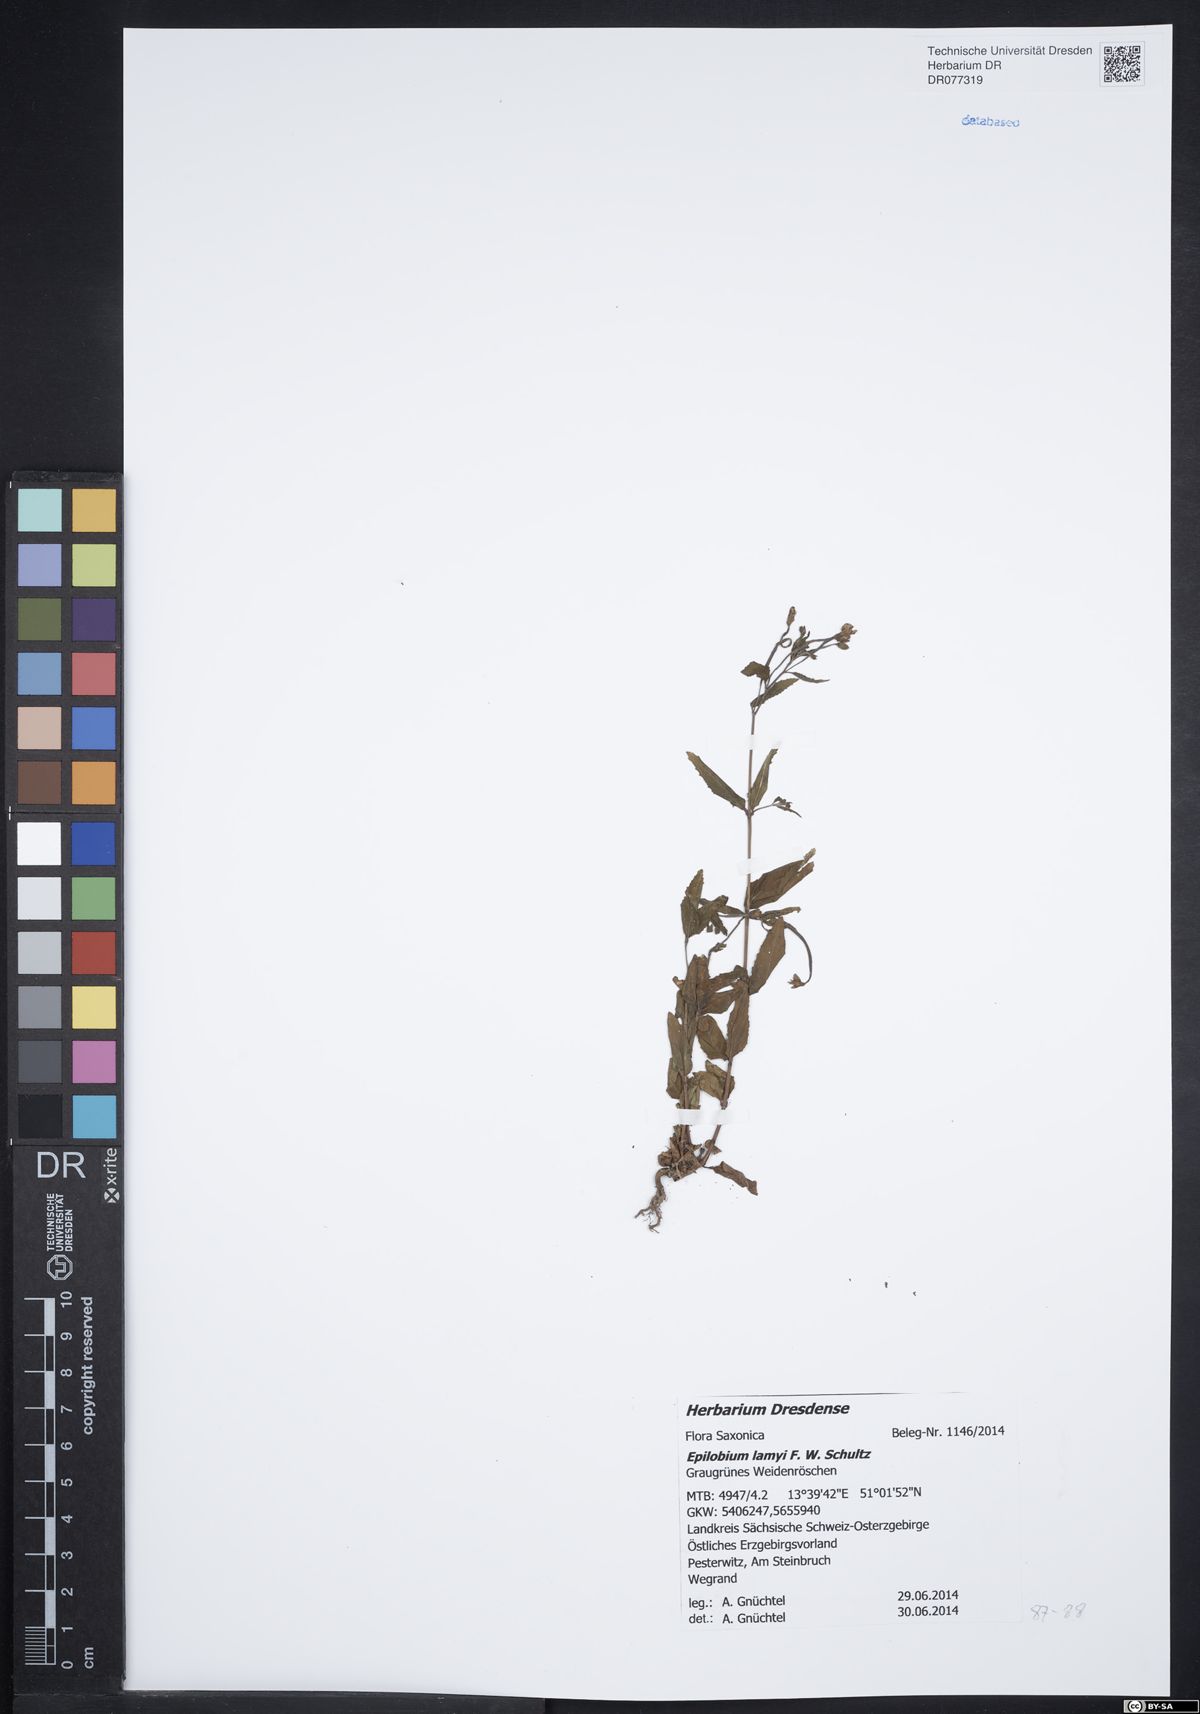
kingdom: Plantae
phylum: Tracheophyta
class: Magnoliopsida
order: Myrtales
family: Onagraceae
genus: Epilobium
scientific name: Epilobium lamyi
